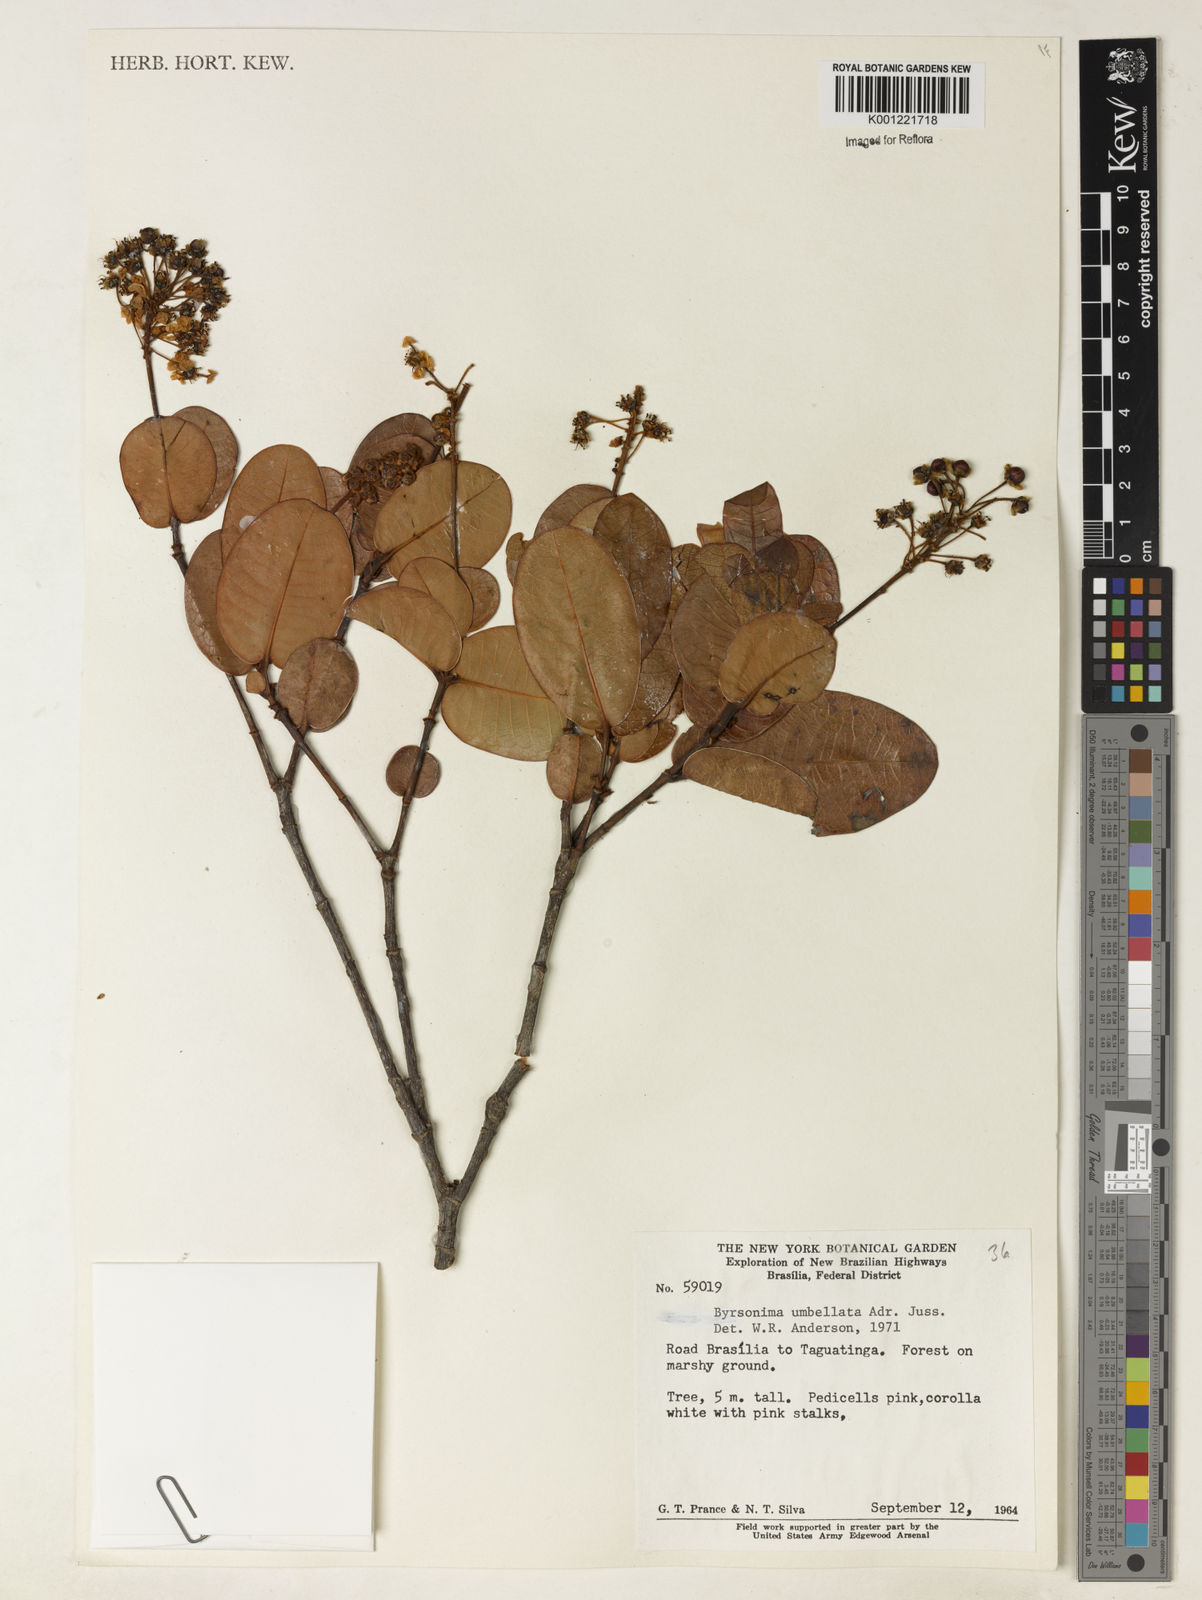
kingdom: Plantae
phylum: Tracheophyta
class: Magnoliopsida
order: Malpighiales
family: Malpighiaceae
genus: Byrsonima
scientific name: Byrsonima umbellata
